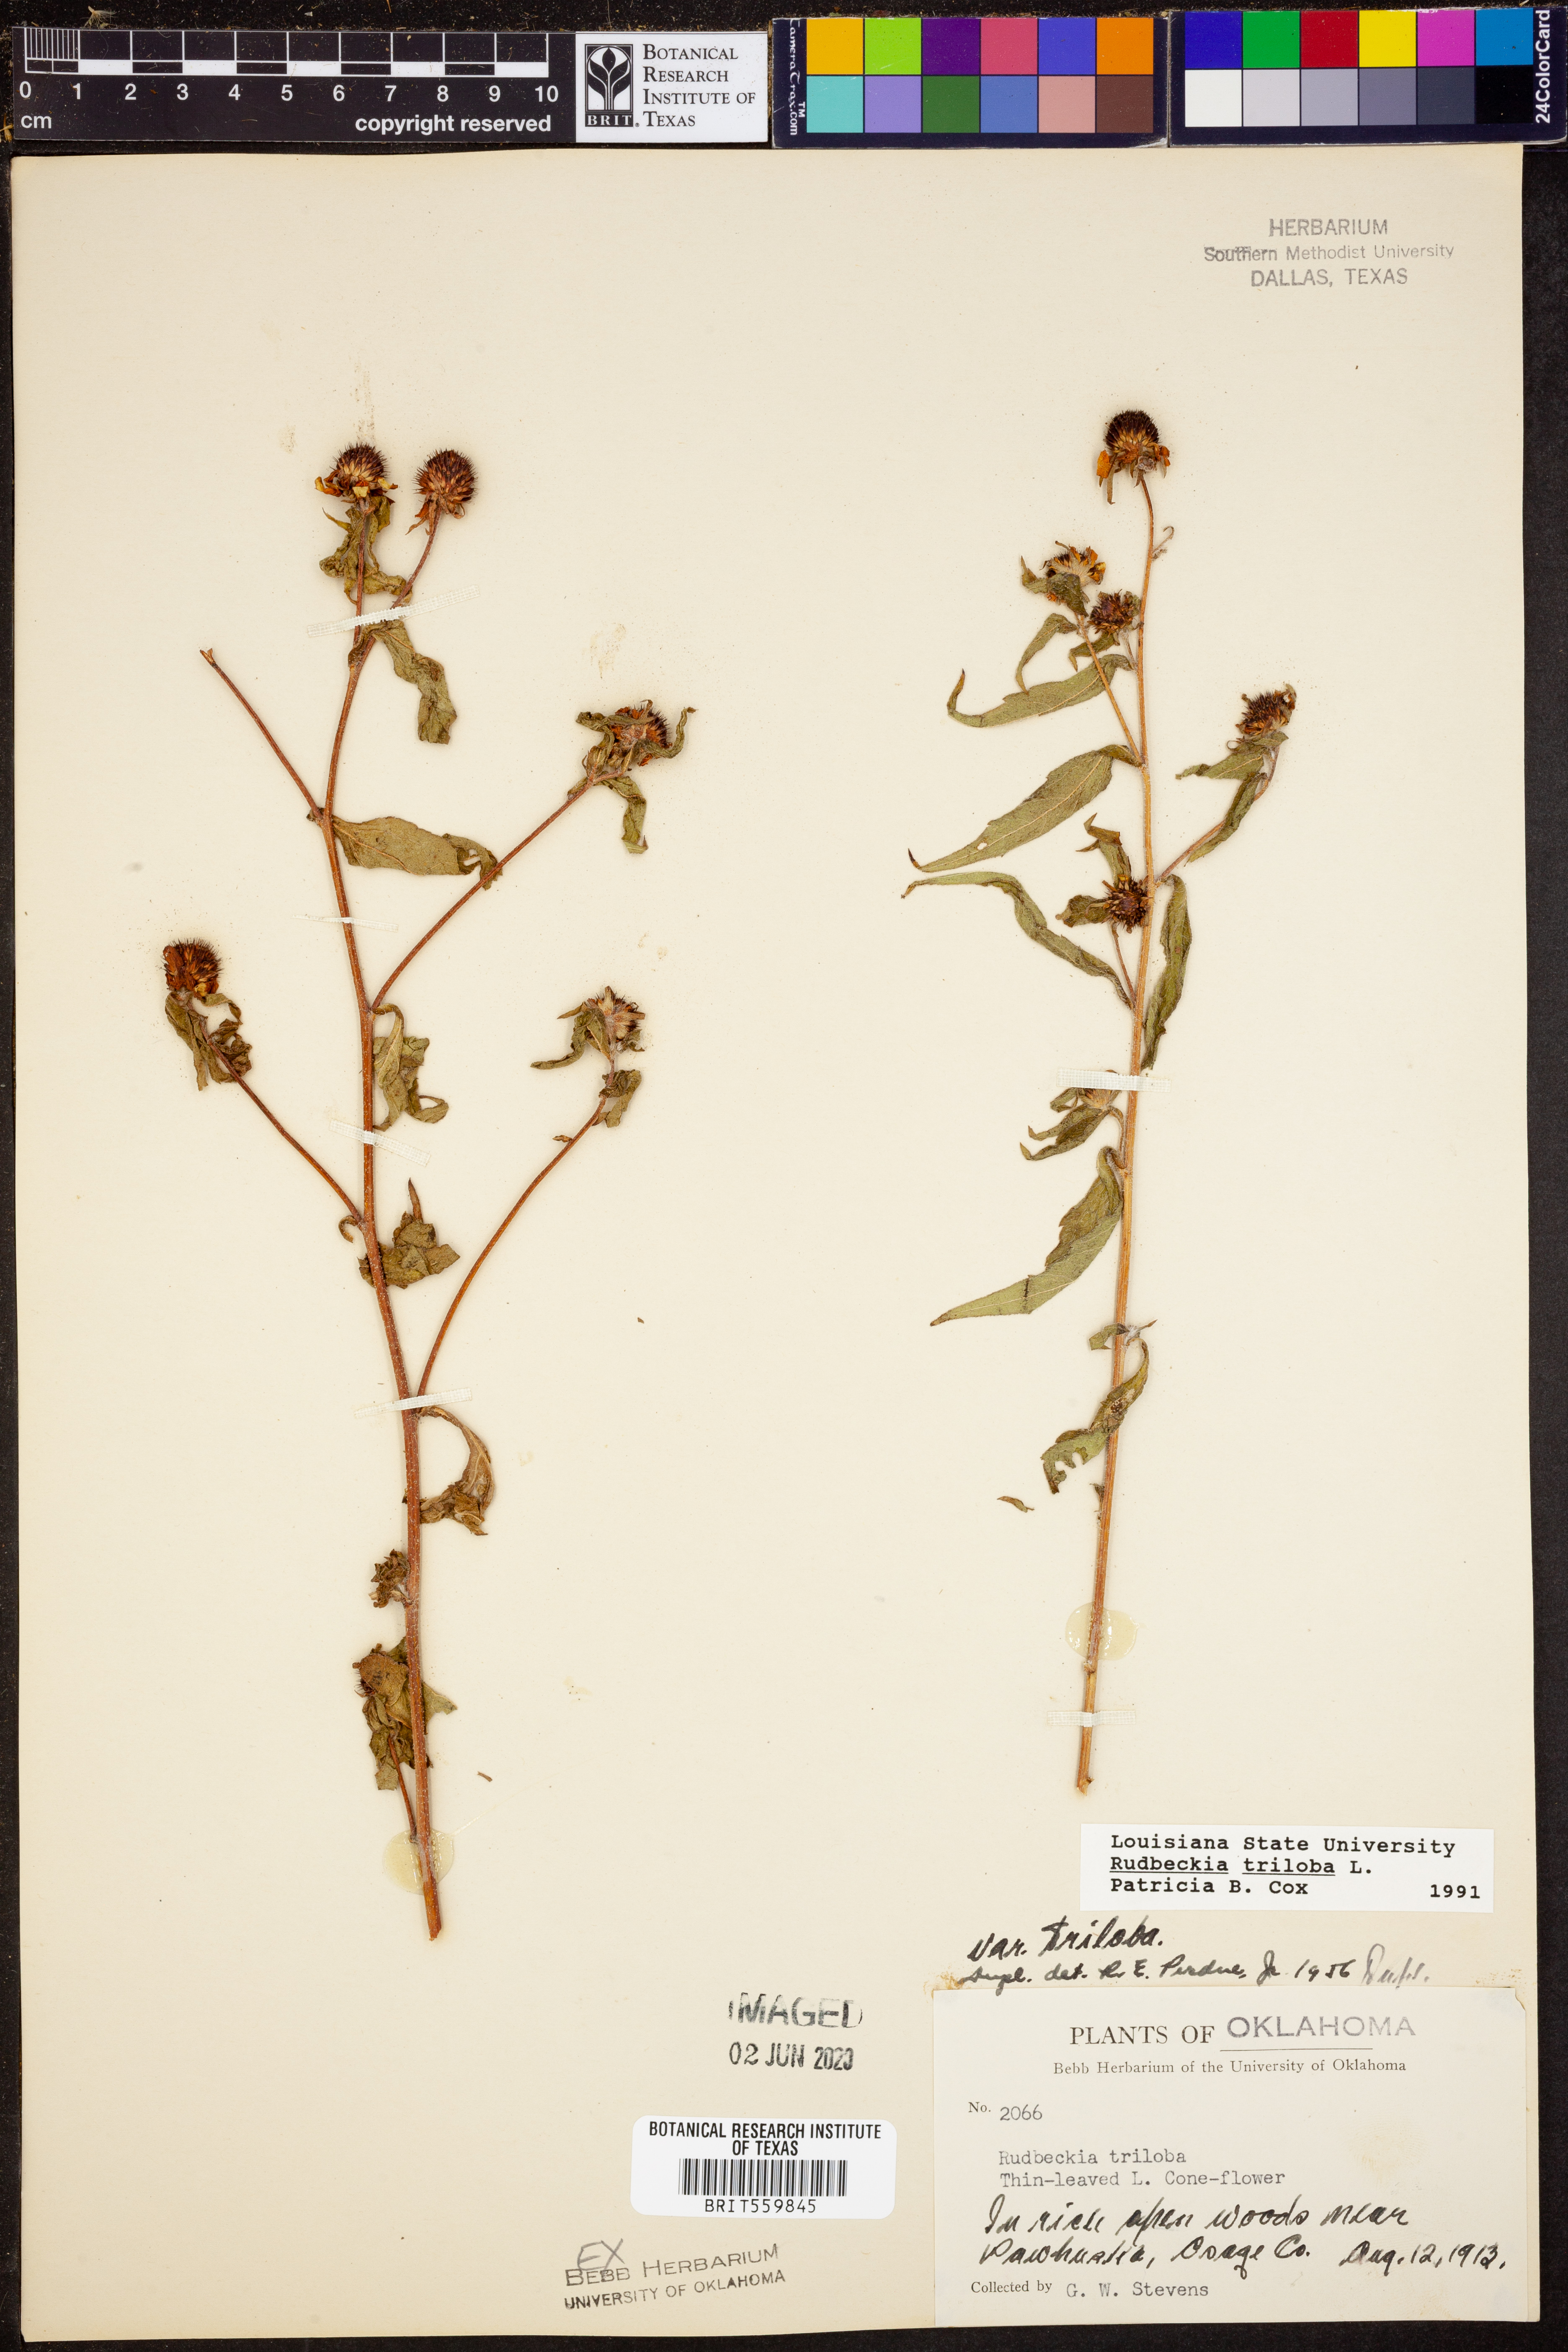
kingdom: Plantae
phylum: Tracheophyta
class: Magnoliopsida
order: Asterales
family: Asteraceae
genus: Rudbeckia
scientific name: Rudbeckia triloba
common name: Thin-leaved coneflower
